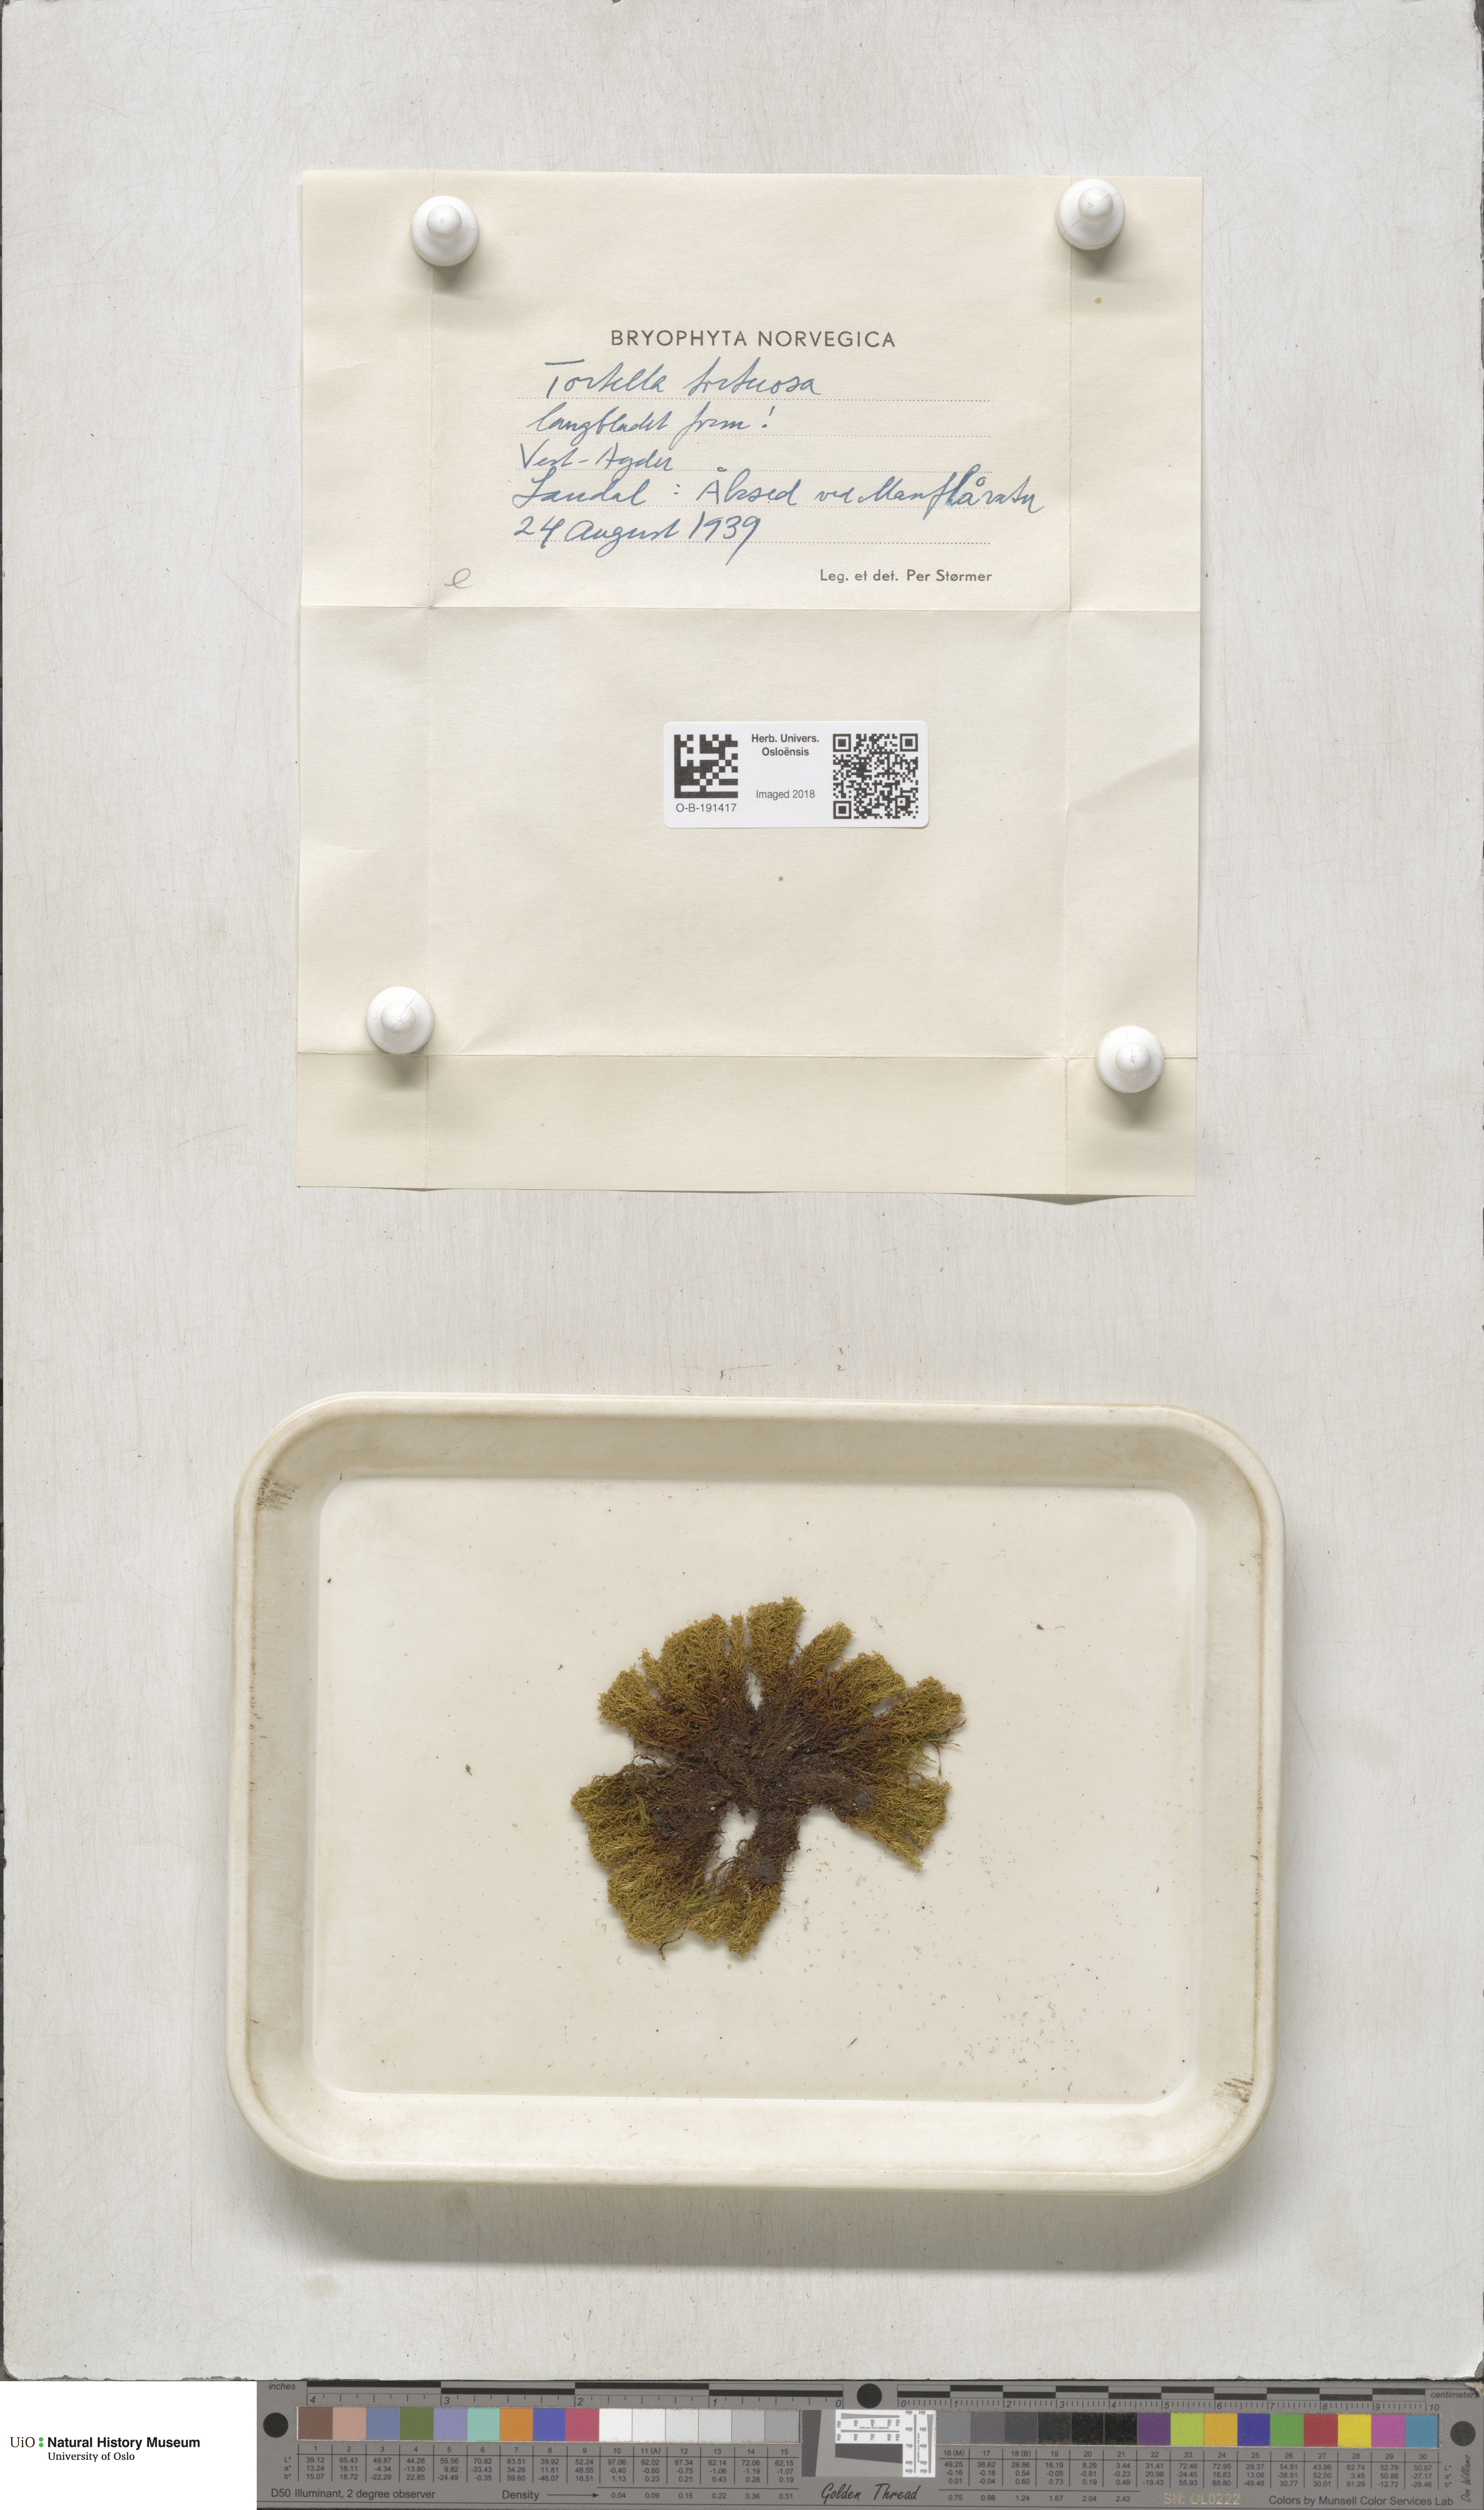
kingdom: Plantae
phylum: Bryophyta
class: Bryopsida
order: Pottiales
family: Pottiaceae
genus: Tortella
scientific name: Tortella tortuosa
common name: Frizzled crisp moss
